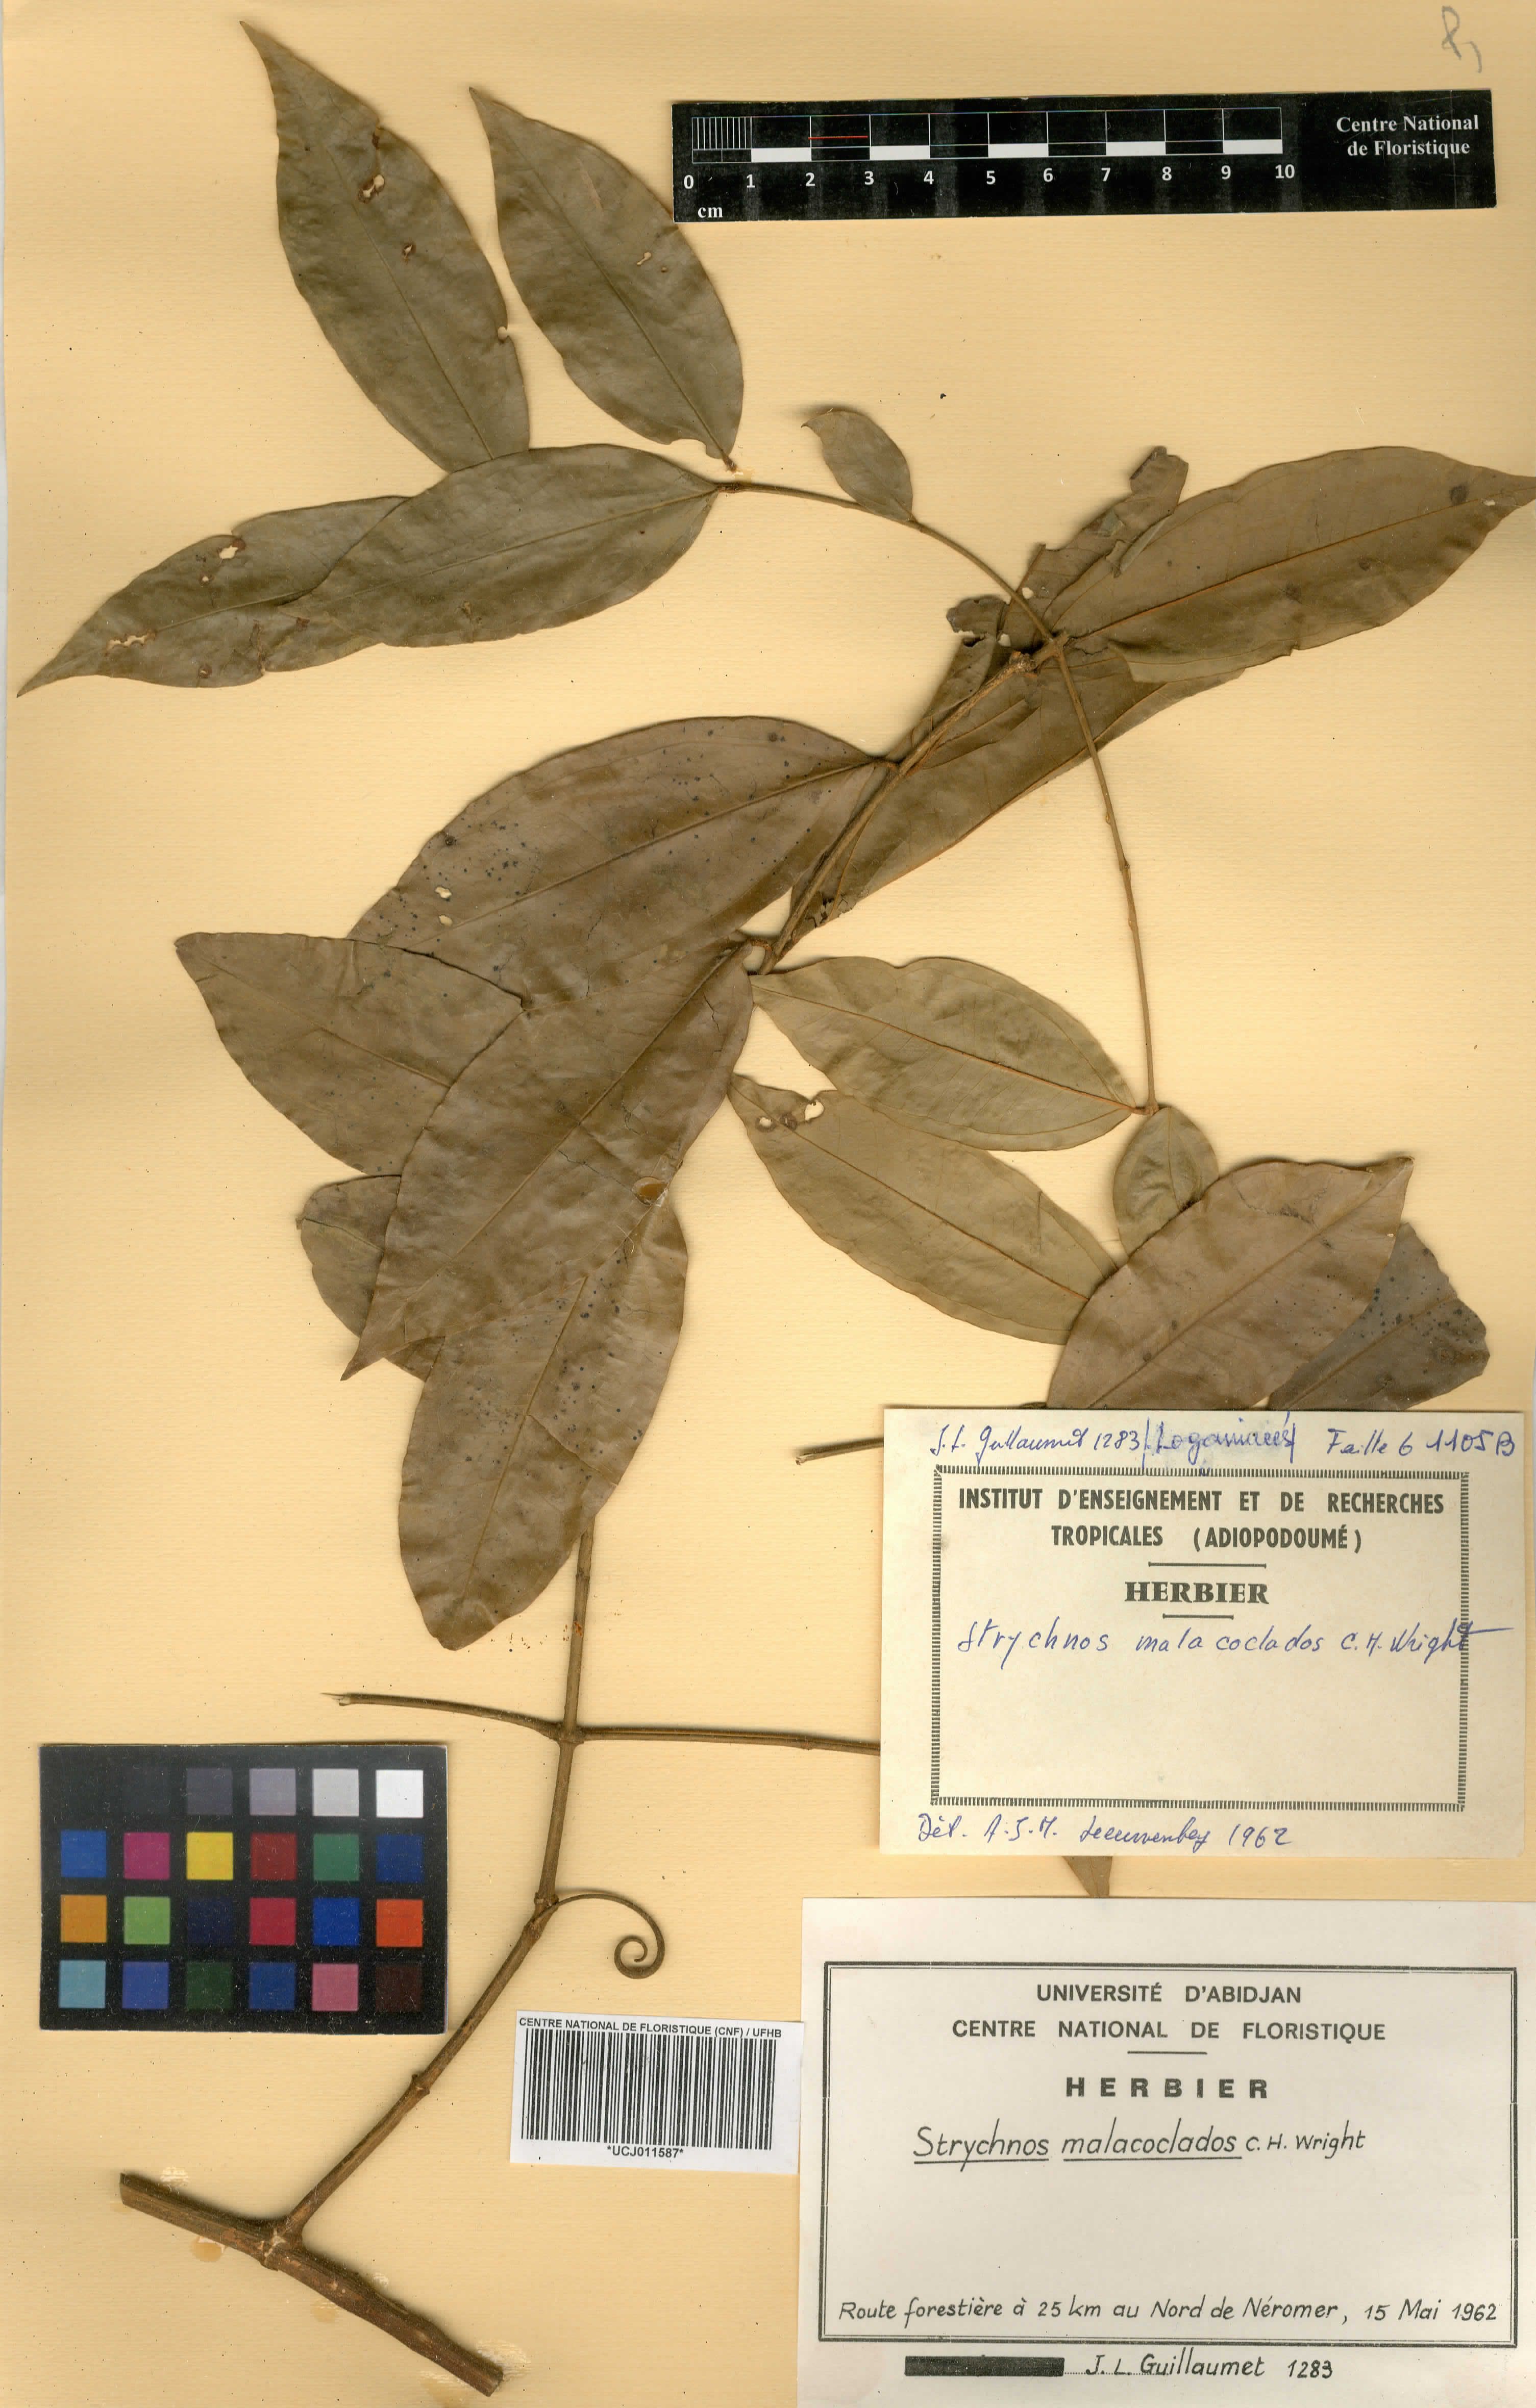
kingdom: Plantae
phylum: Tracheophyta
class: Magnoliopsida
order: Gentianales
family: Loganiaceae
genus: Strychnos
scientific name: Strychnos malacoclados
